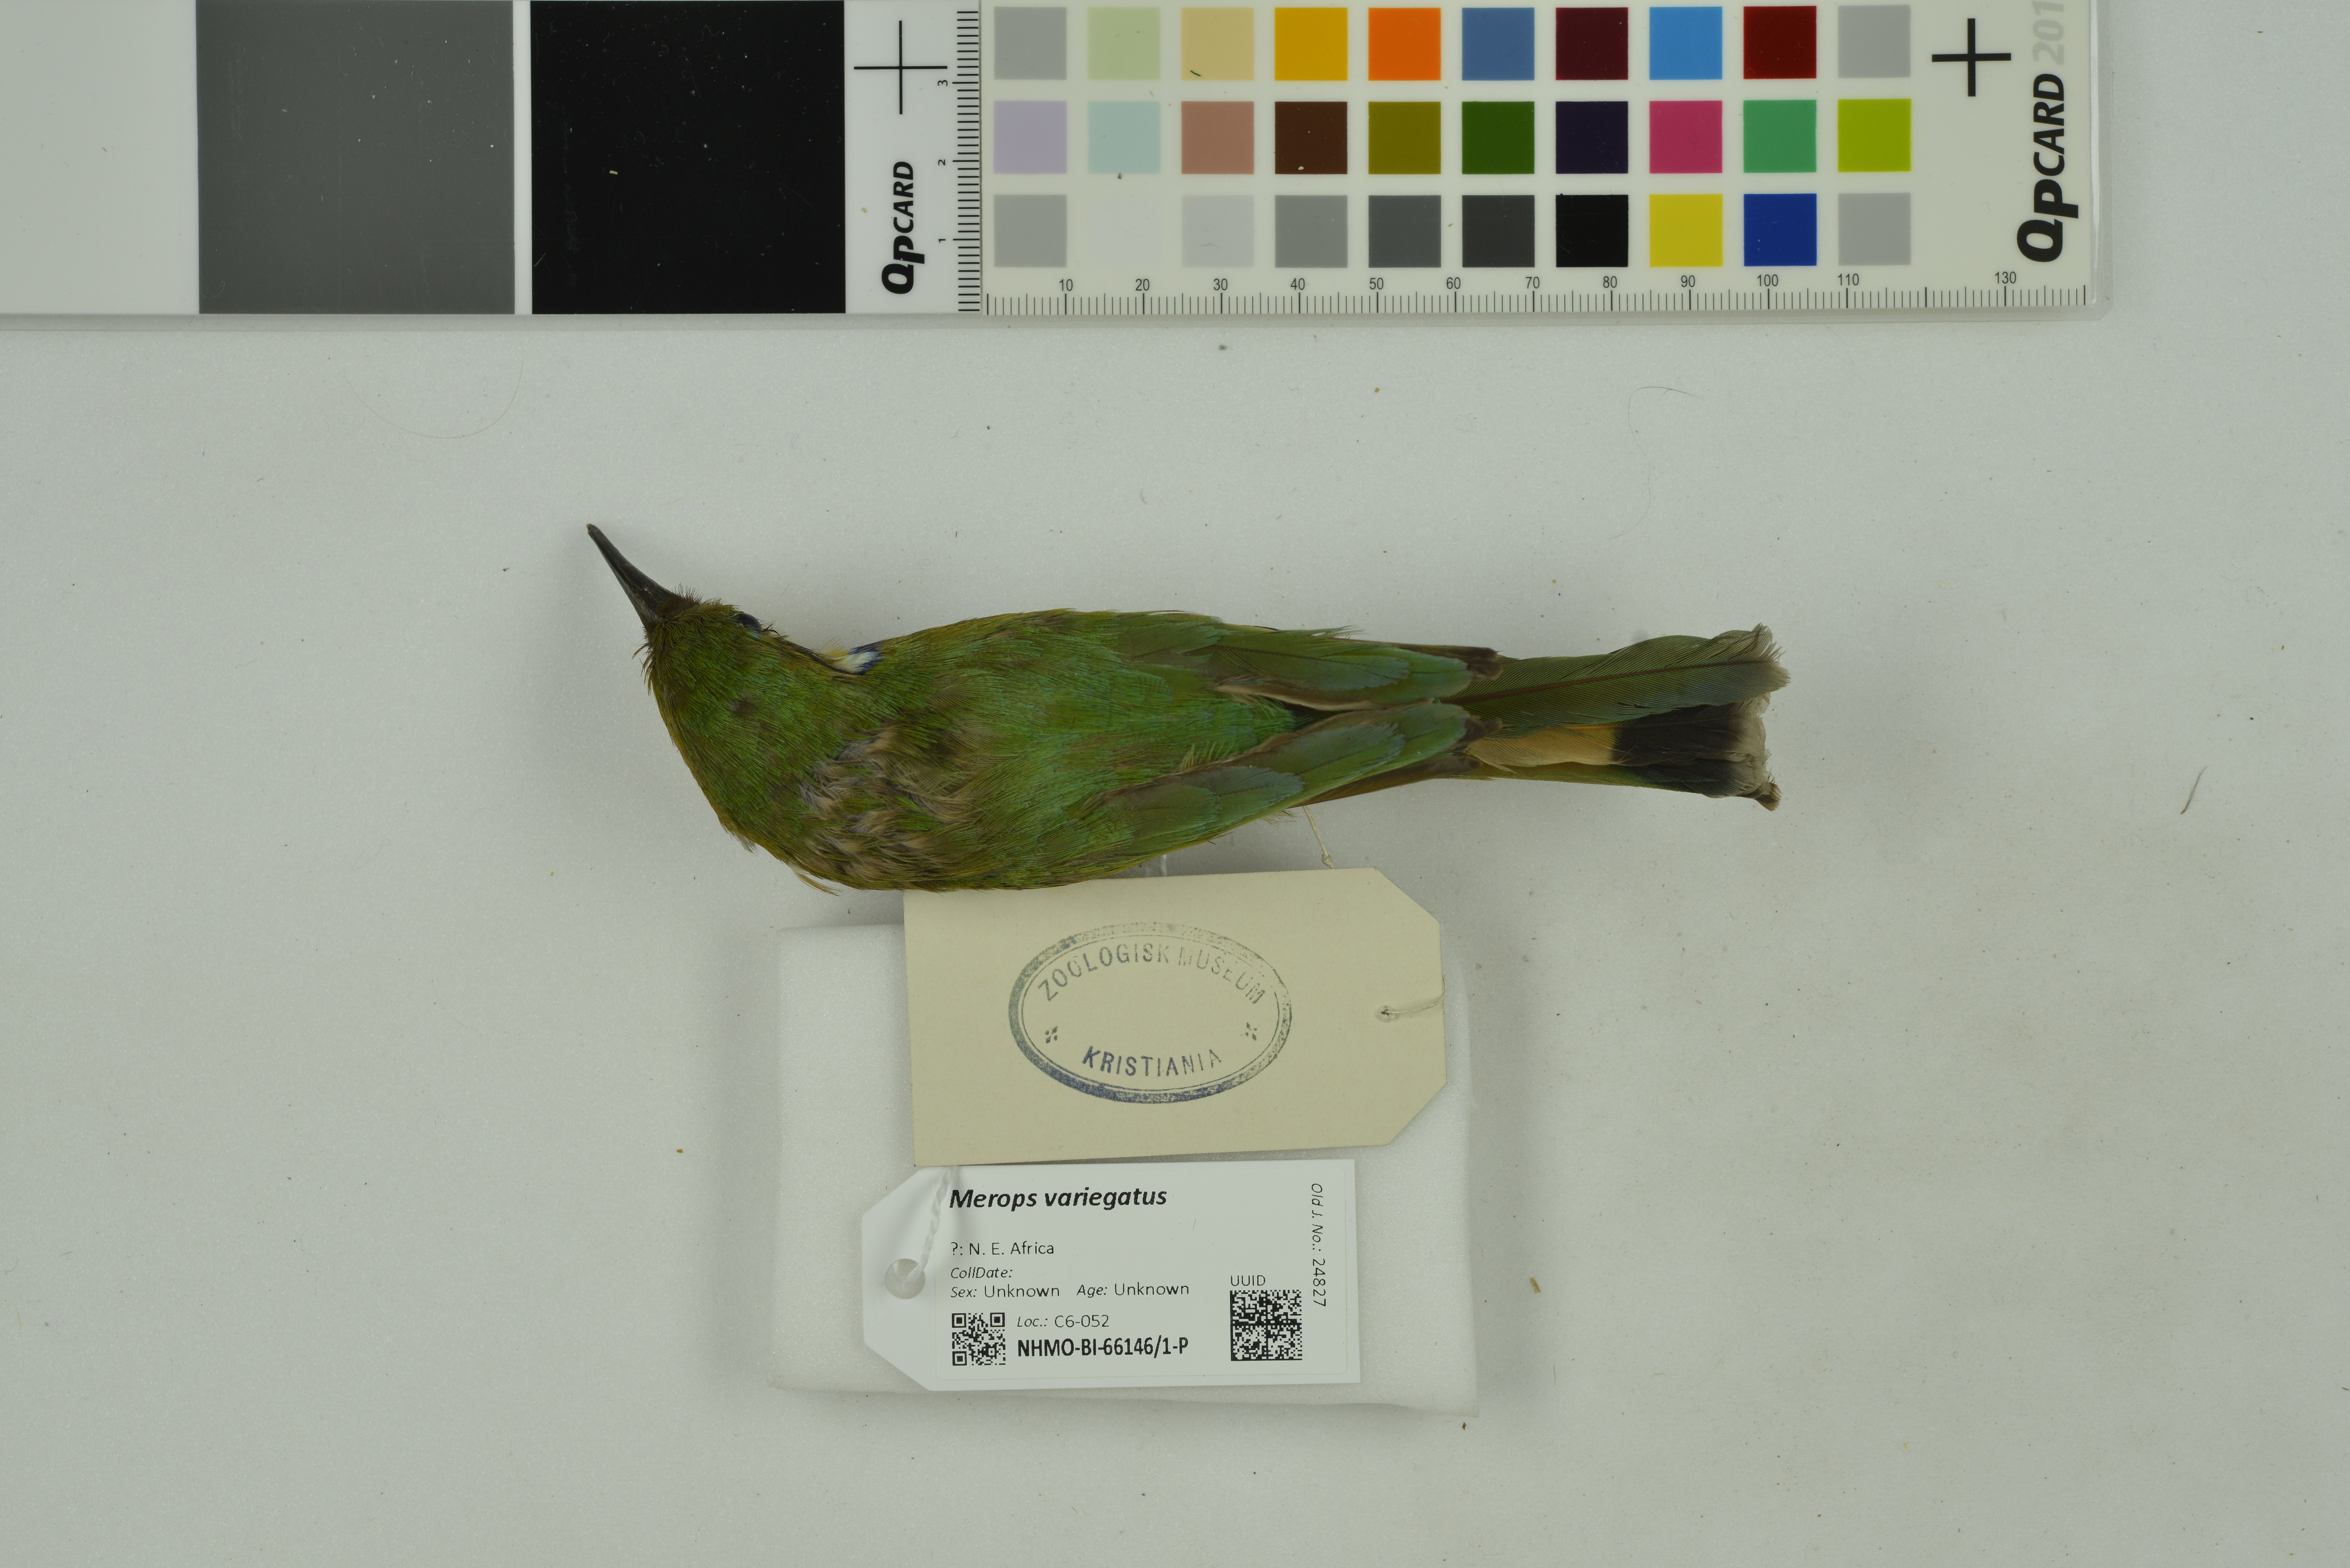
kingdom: Animalia
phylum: Chordata
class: Aves
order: Coraciiformes
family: Meropidae
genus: Merops
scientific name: Merops variegatus
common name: Blue-breasted bee-eater
